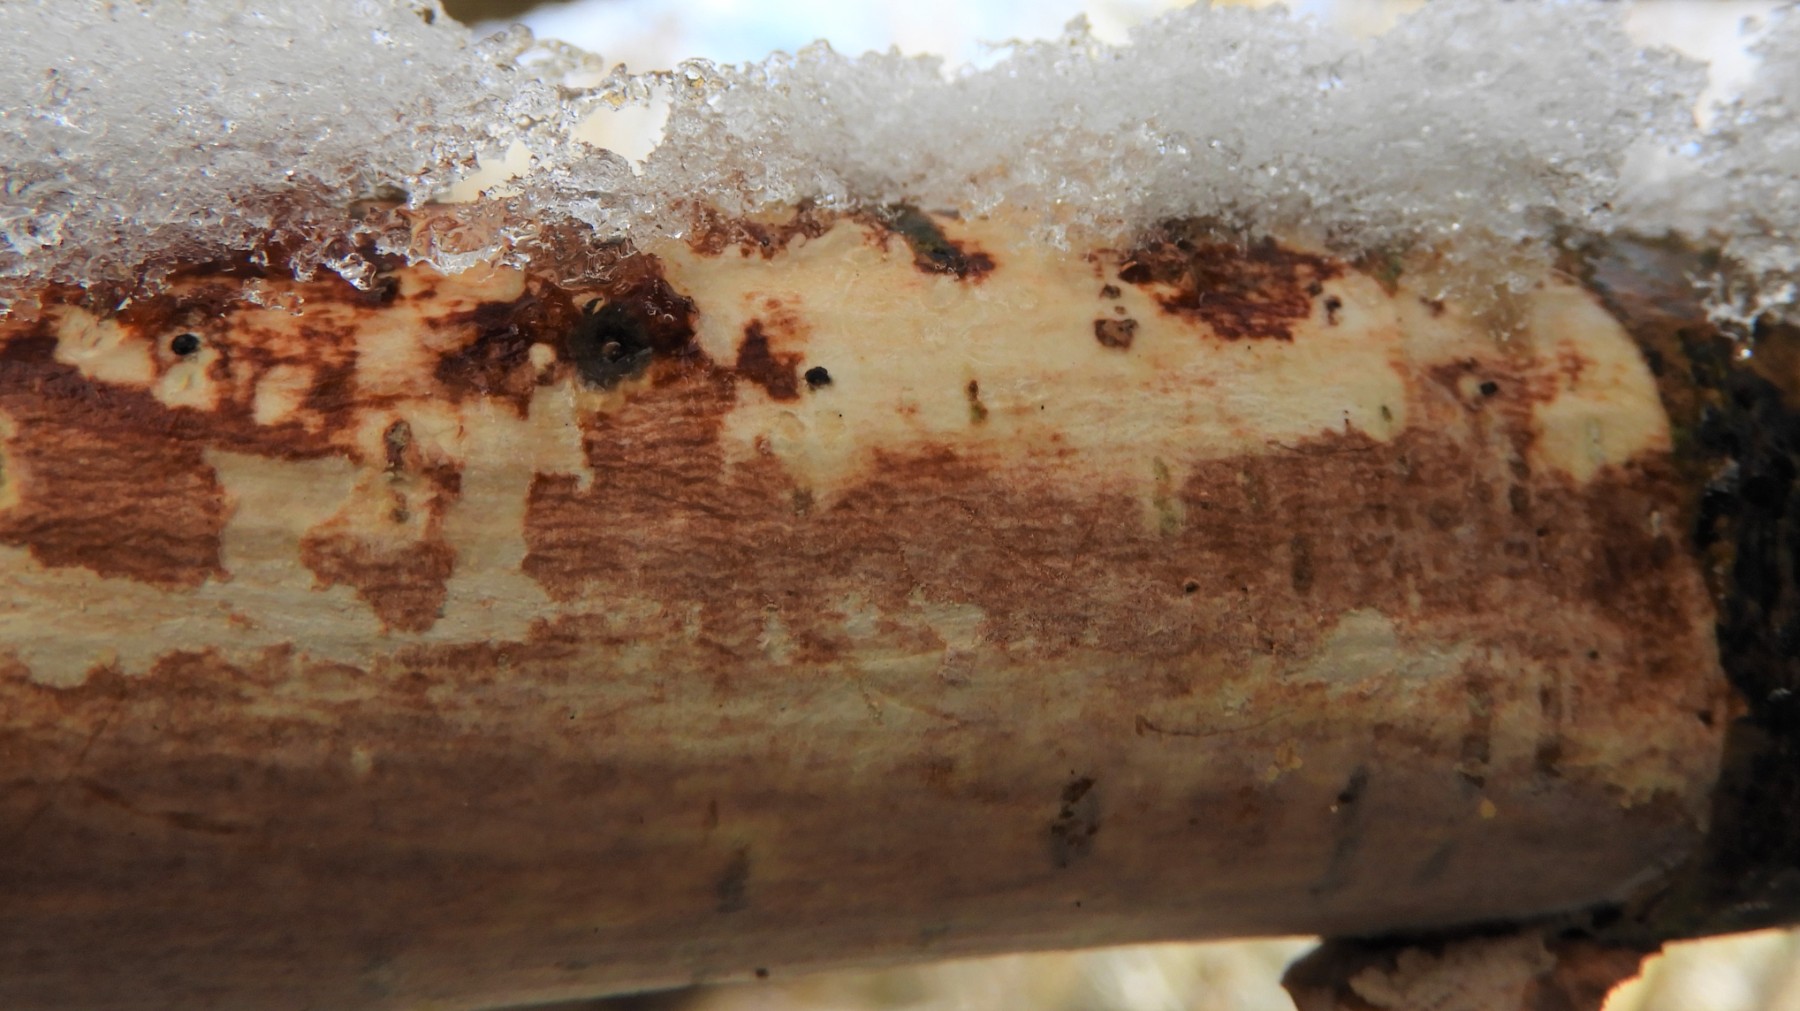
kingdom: Fungi
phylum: Basidiomycota
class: Agaricomycetes
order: Corticiales
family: Vuilleminiaceae
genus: Vuilleminia
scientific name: Vuilleminia coryli
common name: hassel-barksprænger
